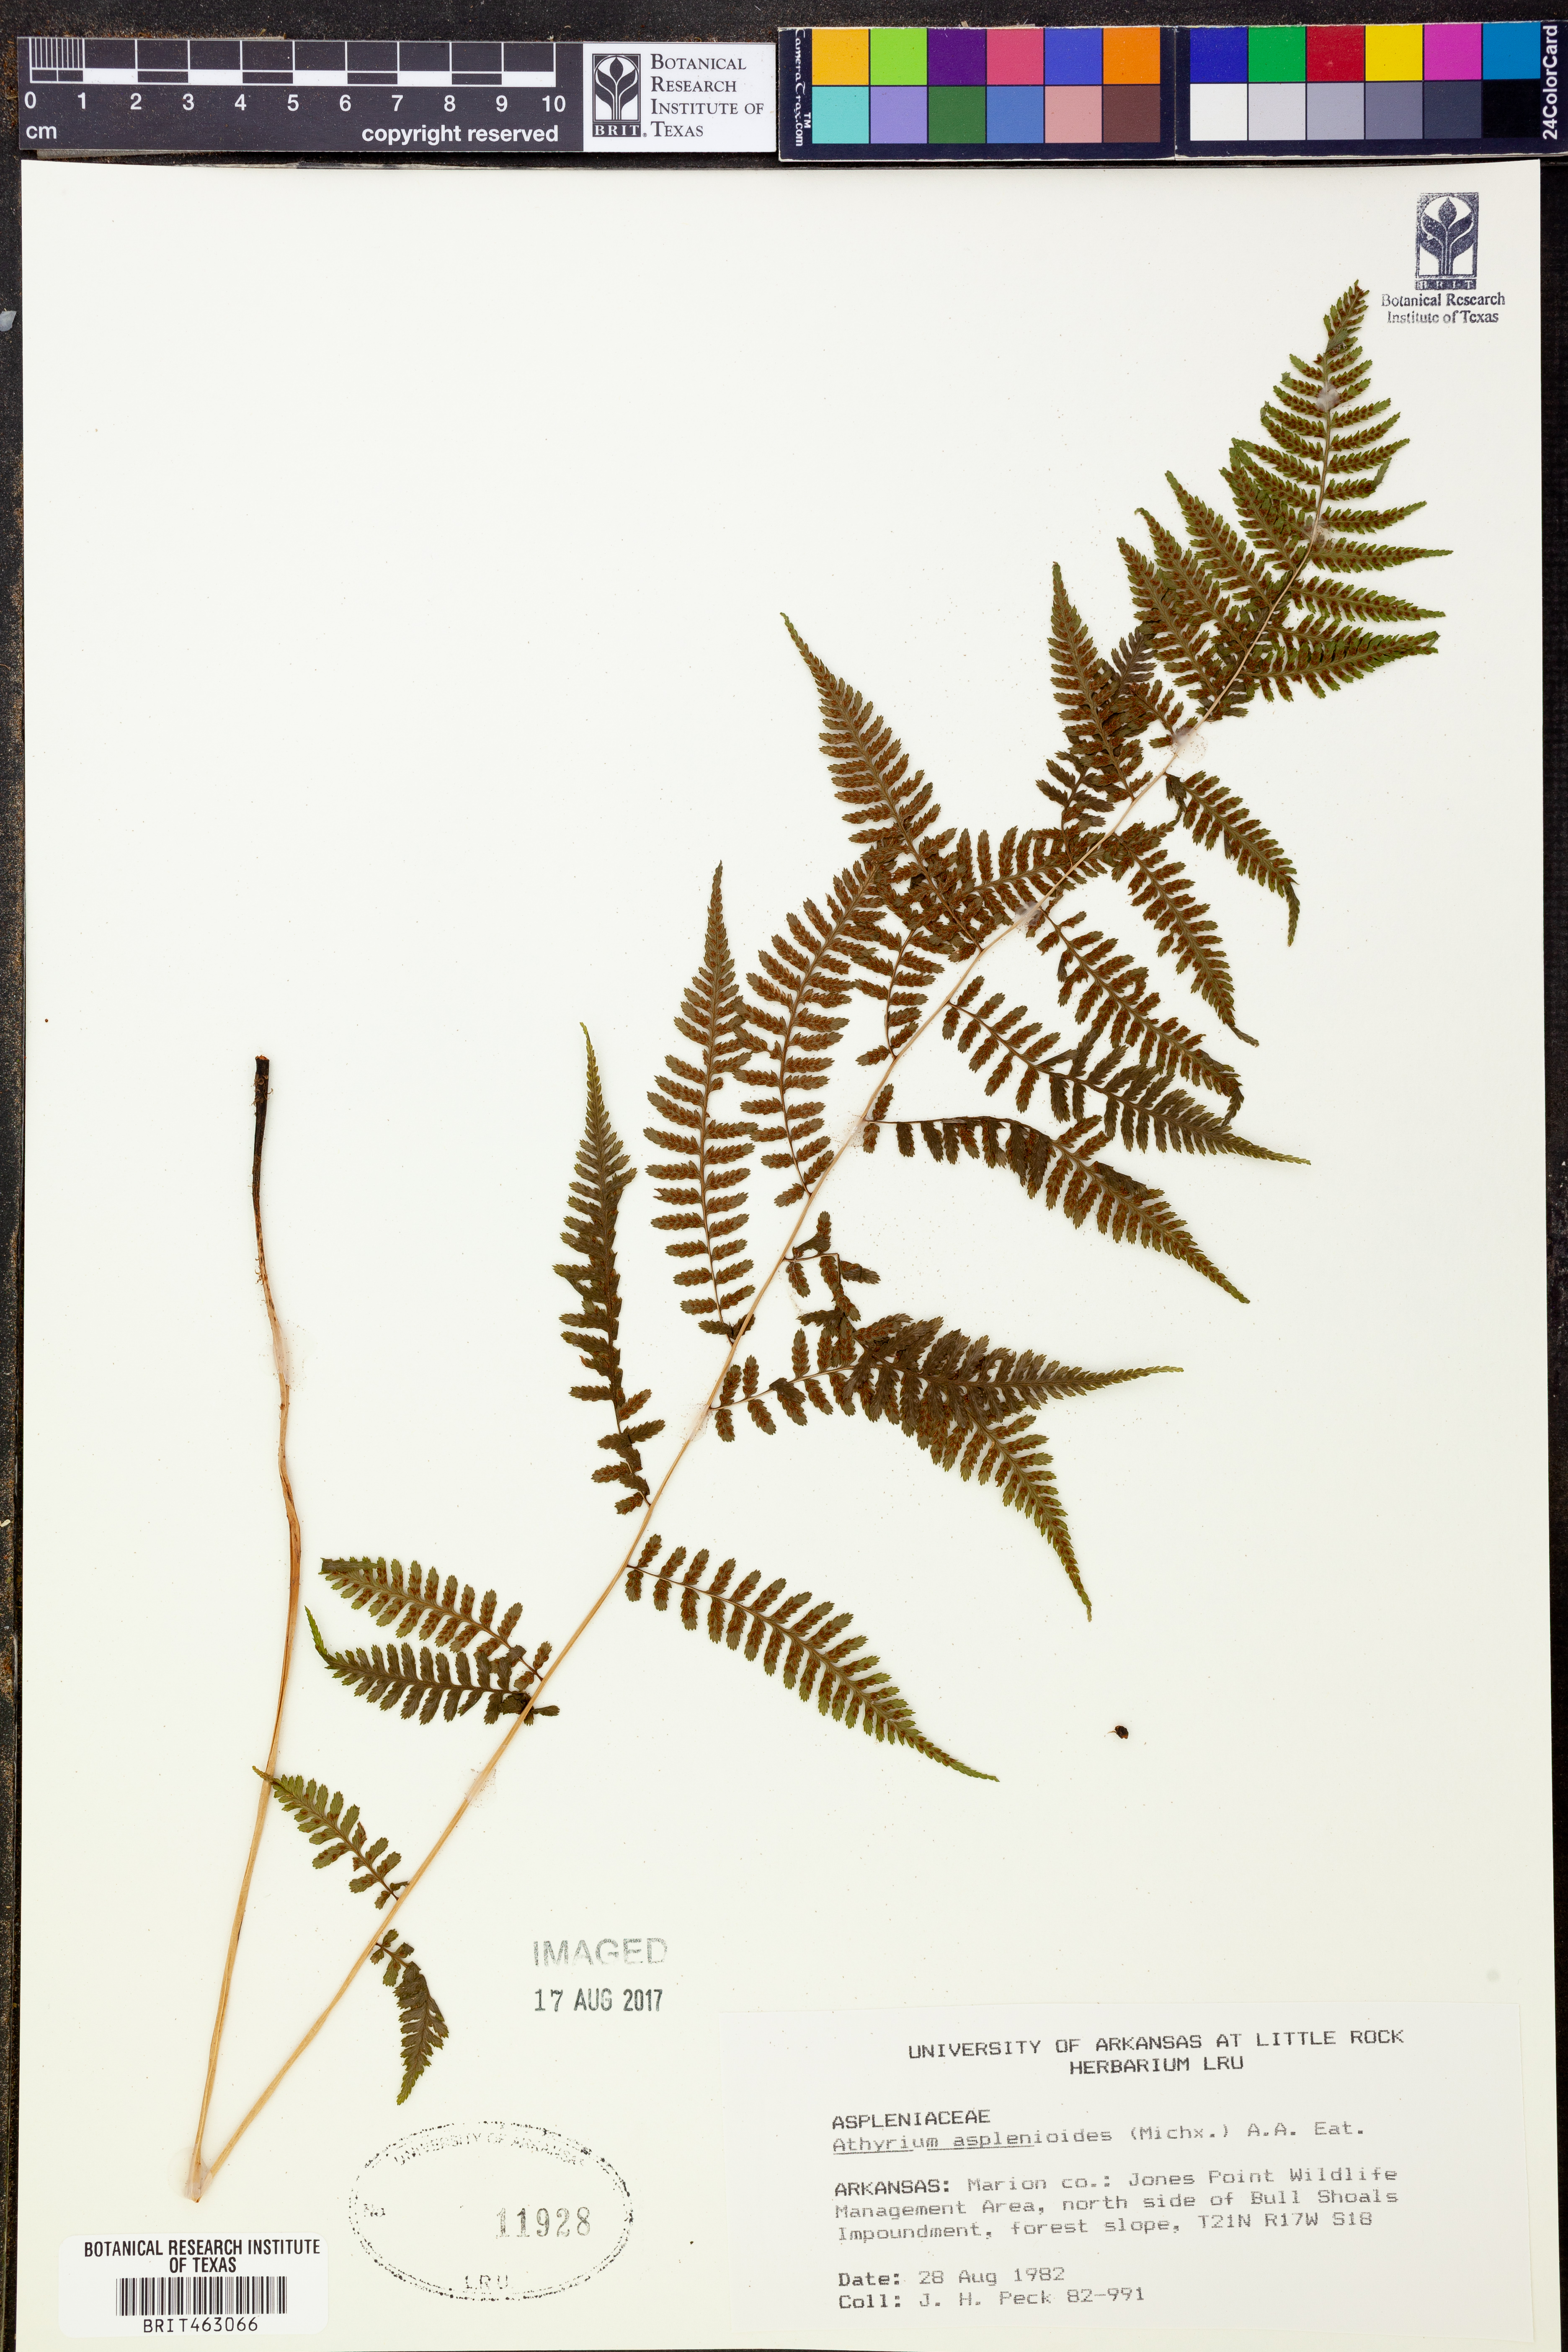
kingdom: Plantae
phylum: Tracheophyta
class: Polypodiopsida
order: Polypodiales
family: Athyriaceae
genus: Athyrium
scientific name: Athyrium asplenioides
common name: Southern lady fern
